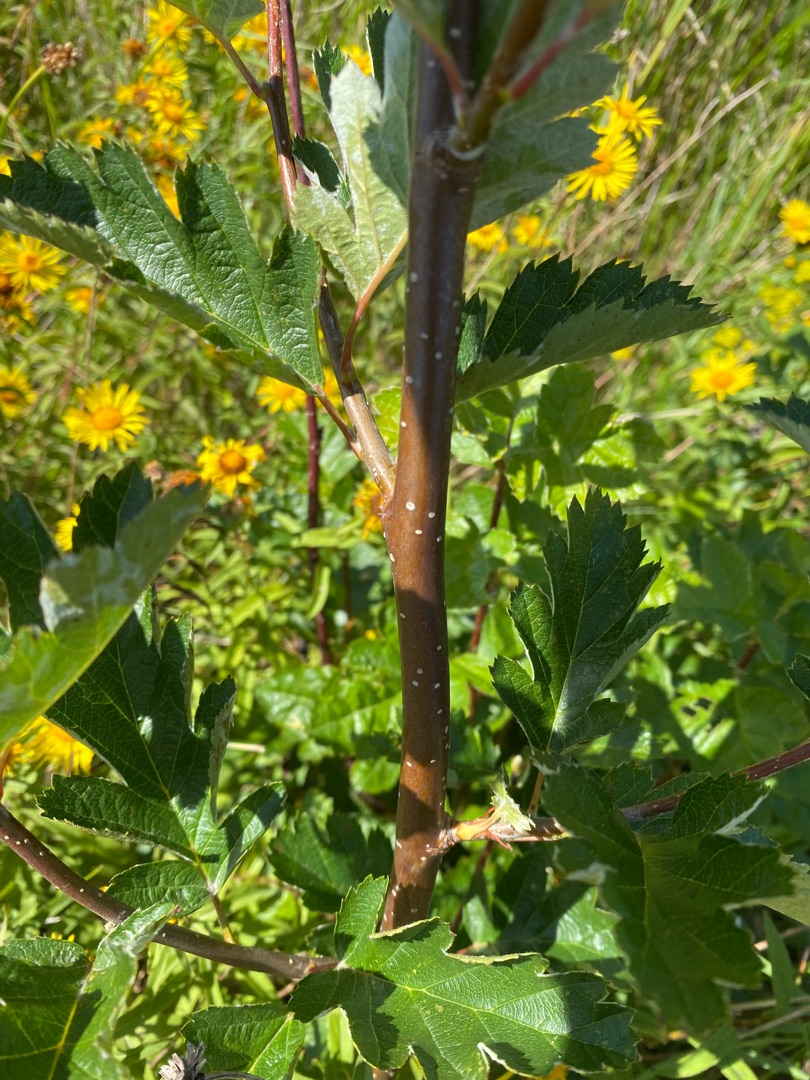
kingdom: Plantae
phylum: Tracheophyta
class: Magnoliopsida
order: Rosales
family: Rosaceae
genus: Scandosorbus
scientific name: Scandosorbus intermedia
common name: Selje-røn
